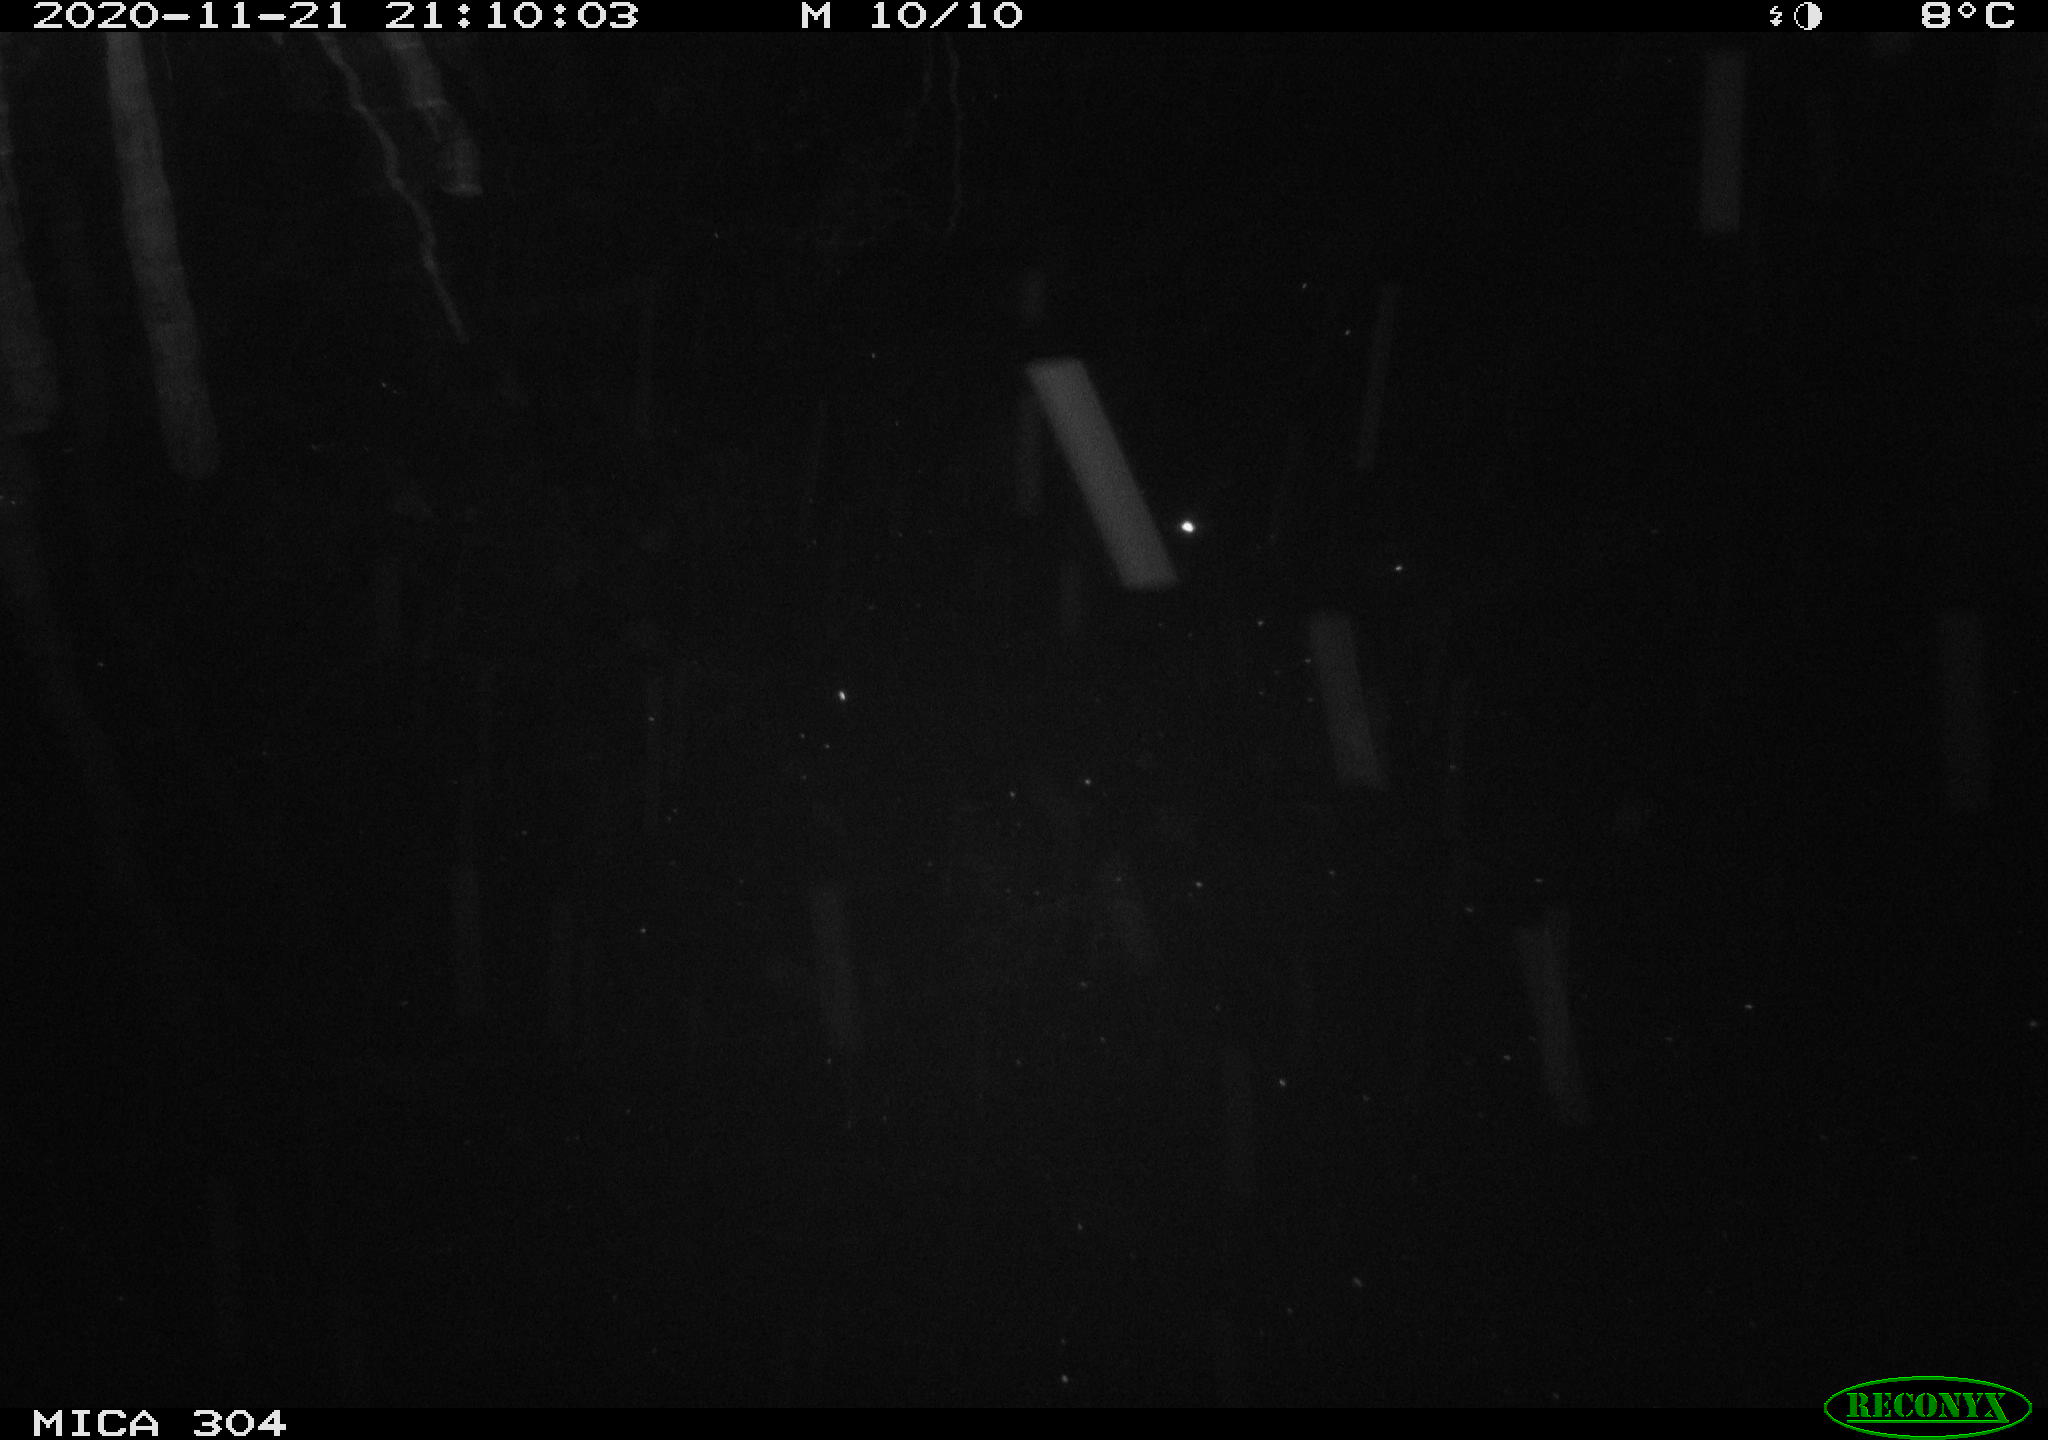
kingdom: Animalia
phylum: Chordata
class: Mammalia
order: Rodentia
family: Muridae
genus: Rattus
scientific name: Rattus norvegicus
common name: Brown rat
